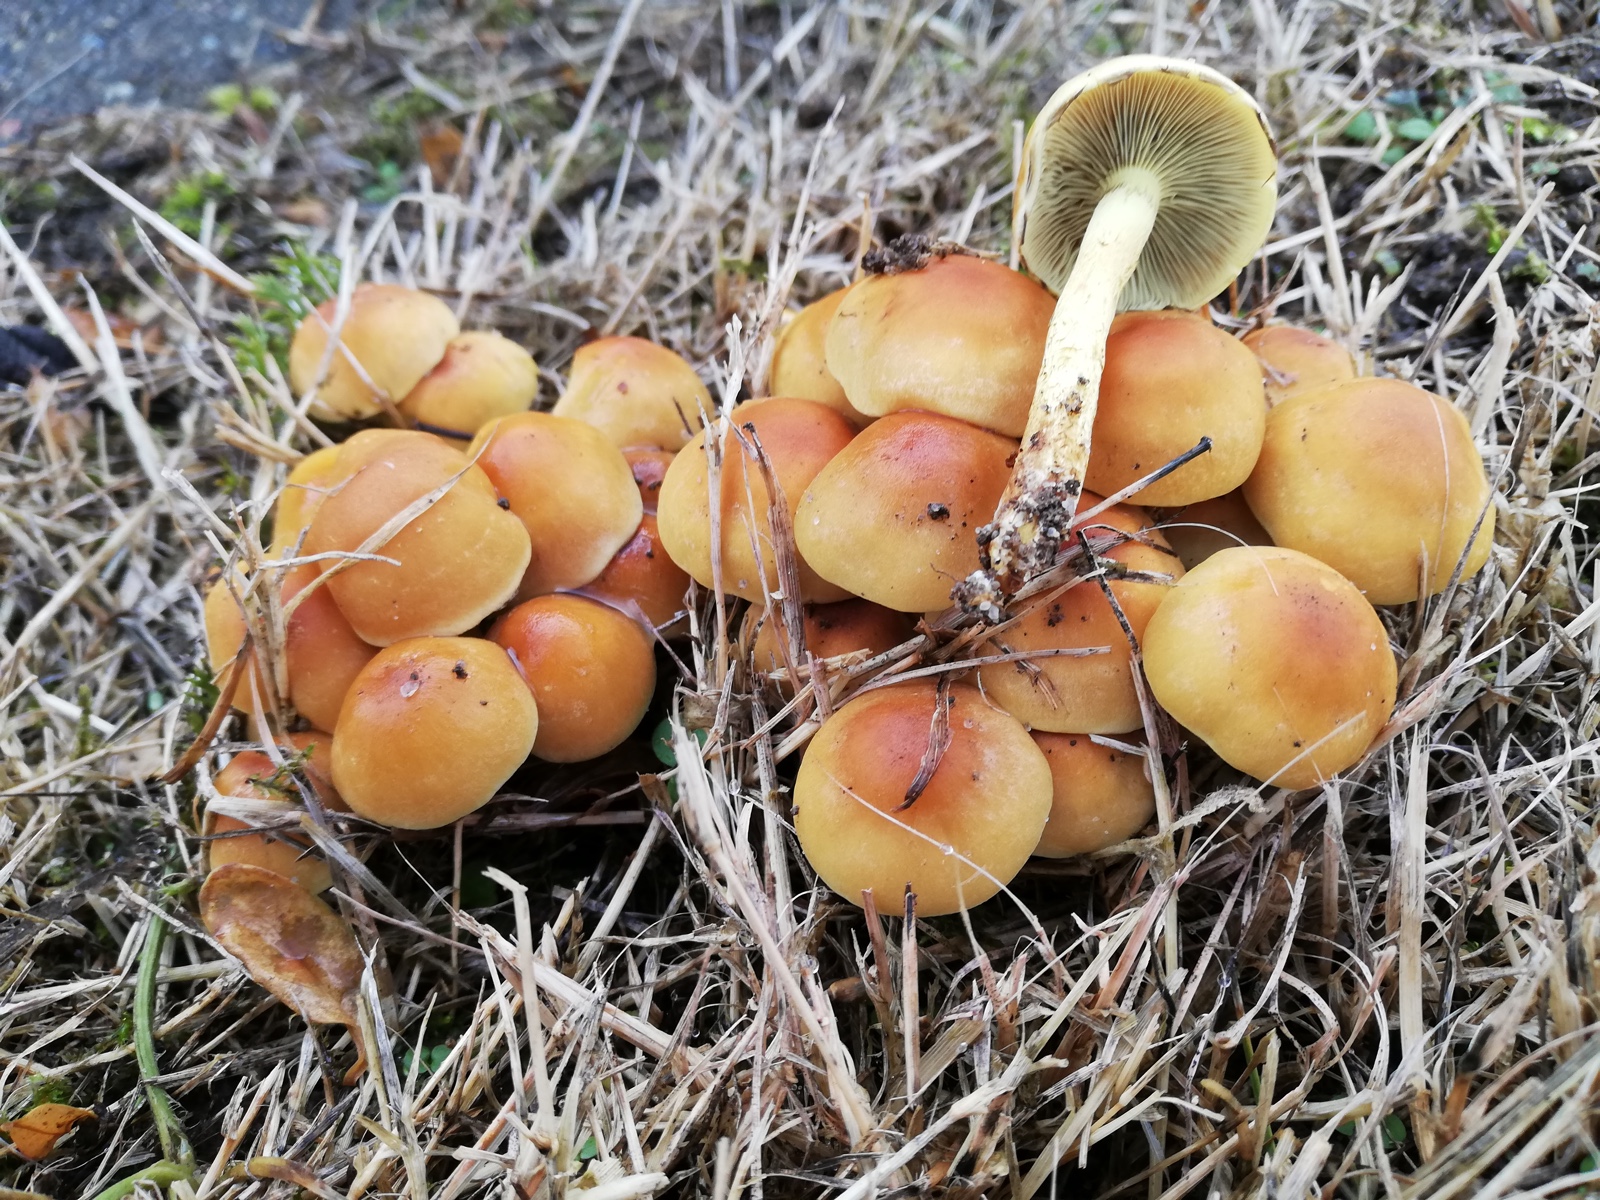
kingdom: Fungi
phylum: Basidiomycota
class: Agaricomycetes
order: Agaricales
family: Strophariaceae
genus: Hypholoma
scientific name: Hypholoma fasciculare
